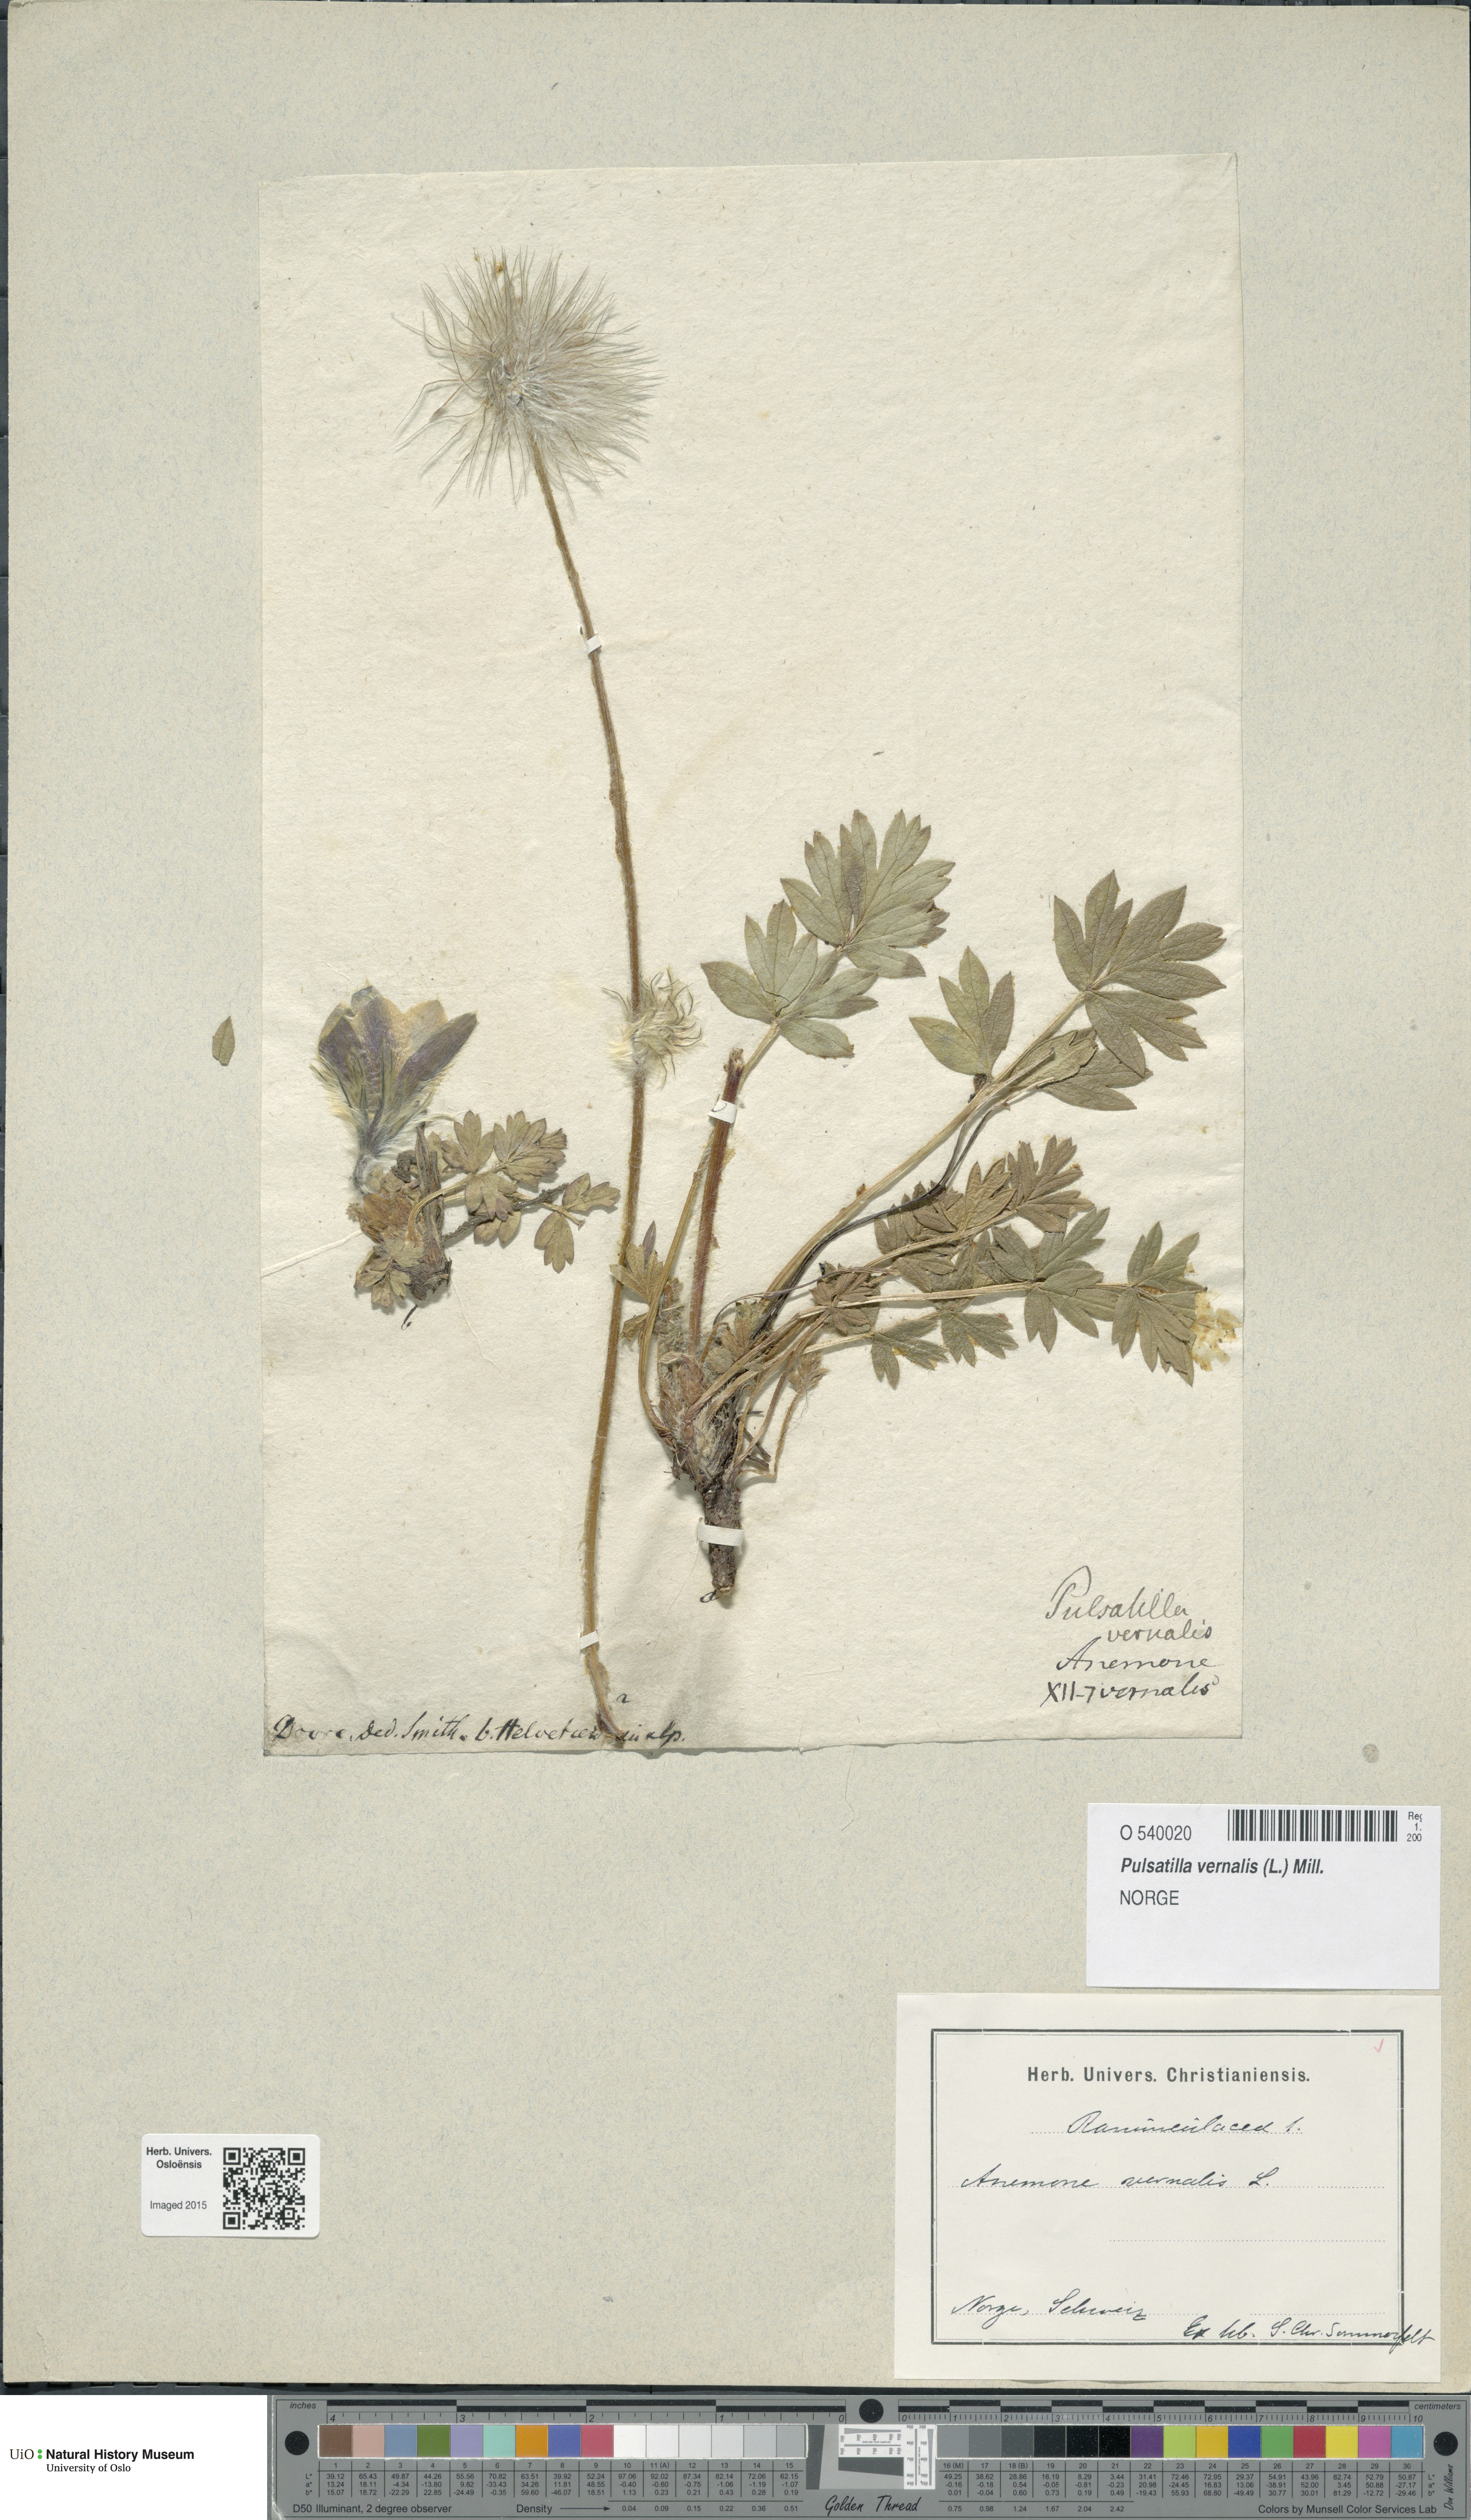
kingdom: Plantae
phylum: Tracheophyta
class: Magnoliopsida
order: Ranunculales
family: Ranunculaceae
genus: Pulsatilla
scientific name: Pulsatilla vernalis
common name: Spring pasque flower
